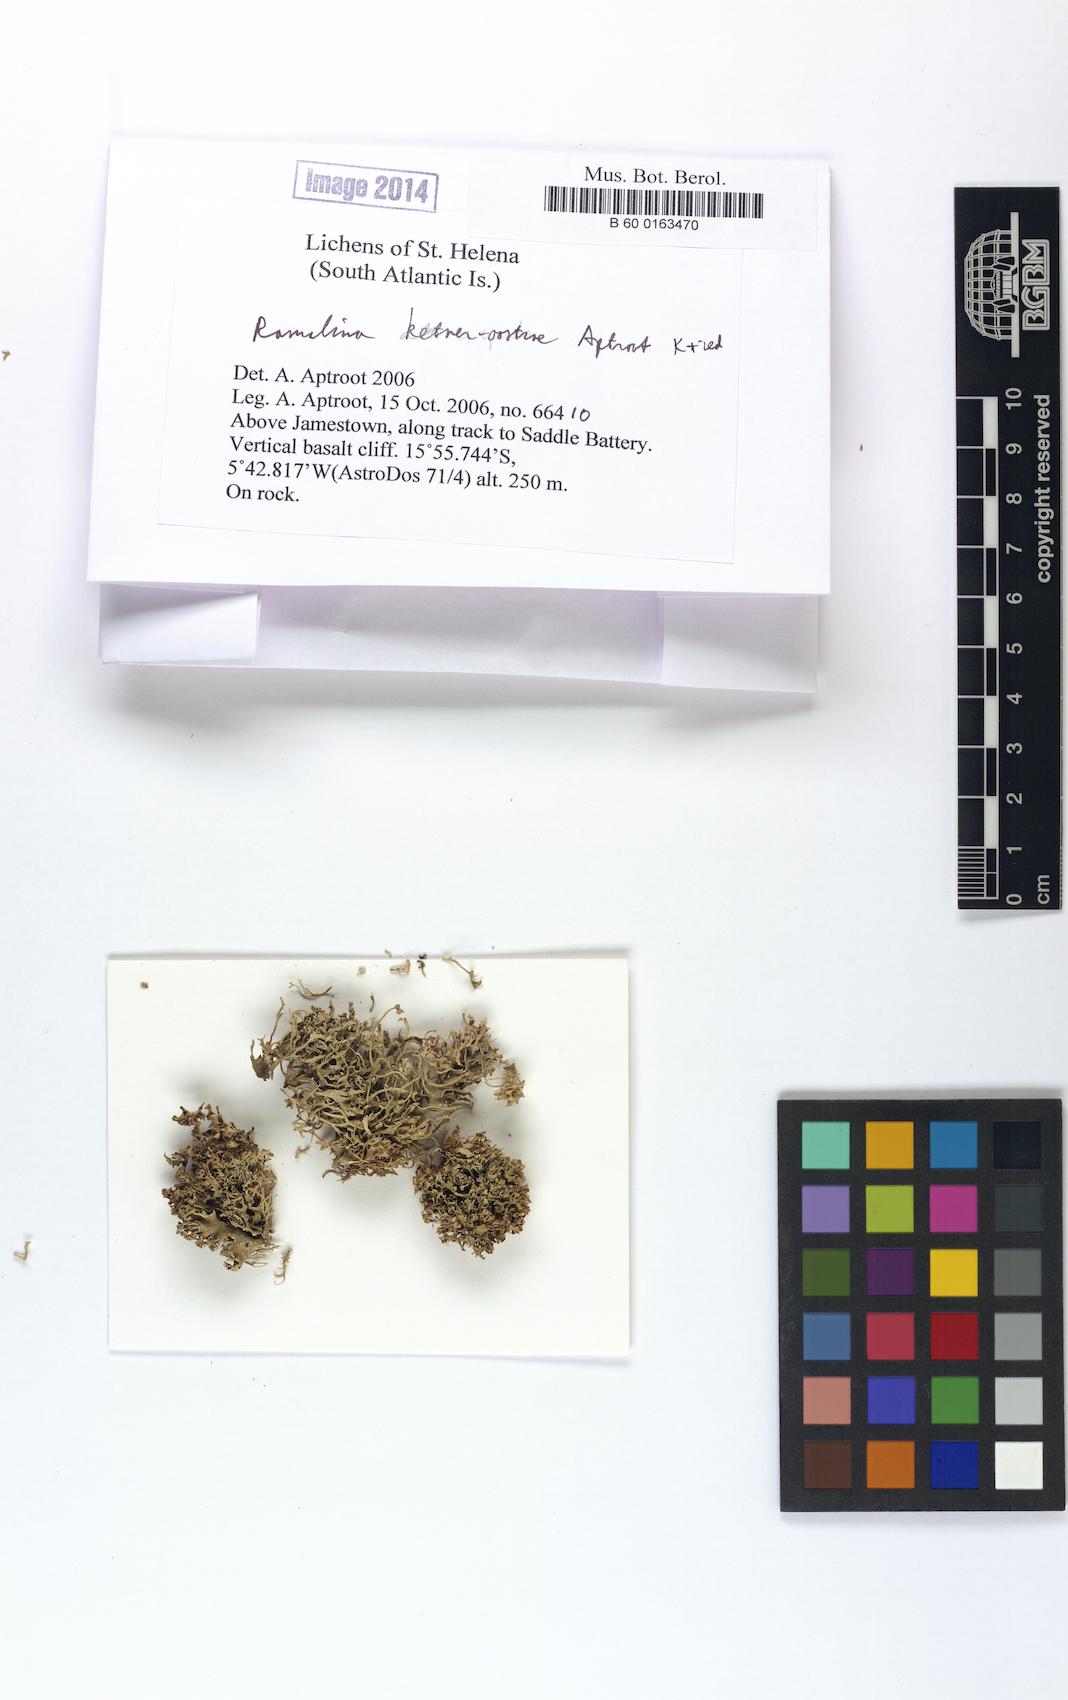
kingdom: Fungi
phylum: Ascomycota
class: Lecanoromycetes
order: Lecanorales
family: Ramalinaceae
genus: Ramalina
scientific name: Ramalina ketner-oostrae
